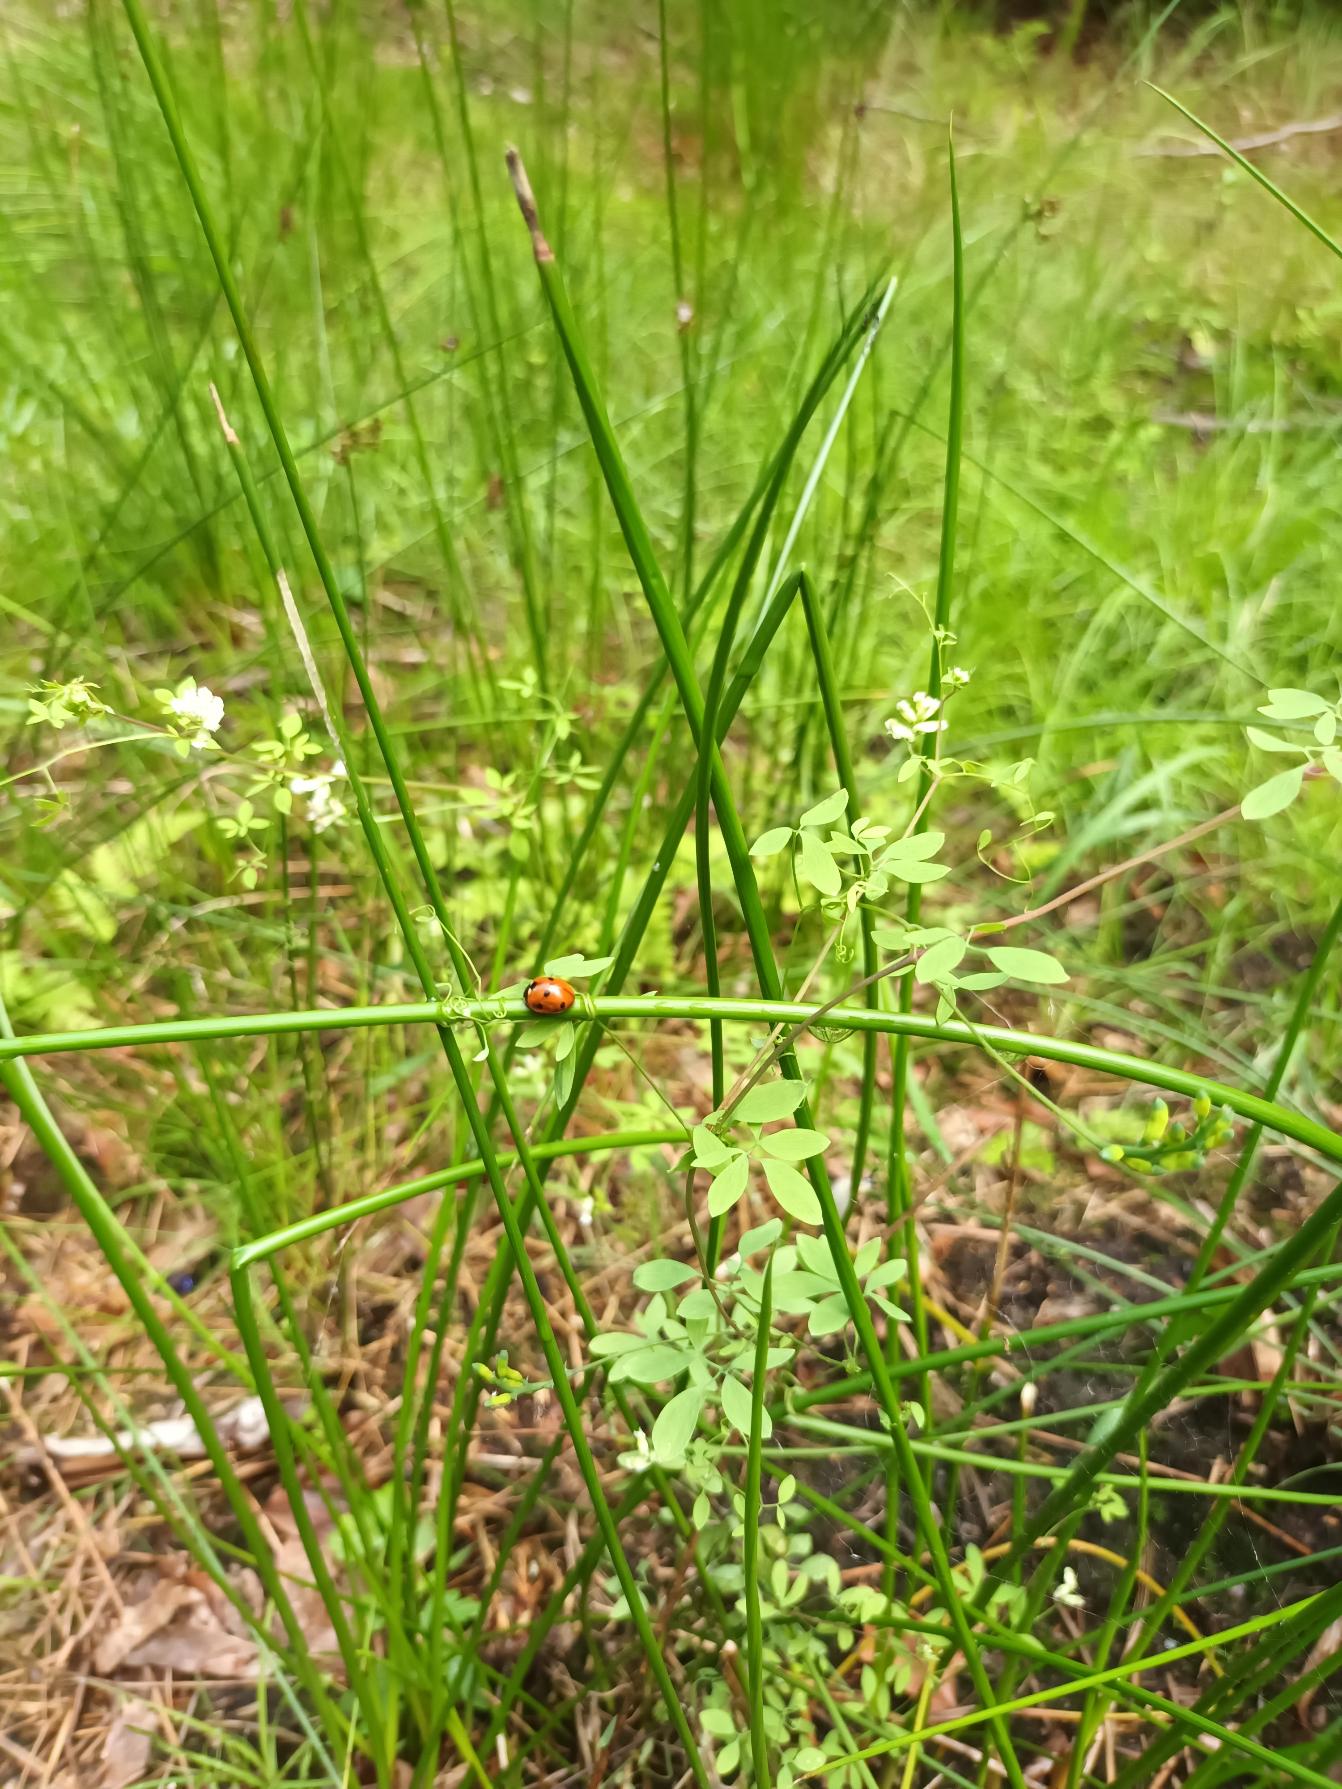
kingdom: Plantae
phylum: Tracheophyta
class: Magnoliopsida
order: Ranunculales
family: Papaveraceae
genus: Ceratocapnos
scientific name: Ceratocapnos claviculata
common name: Klatrende lærkespore
